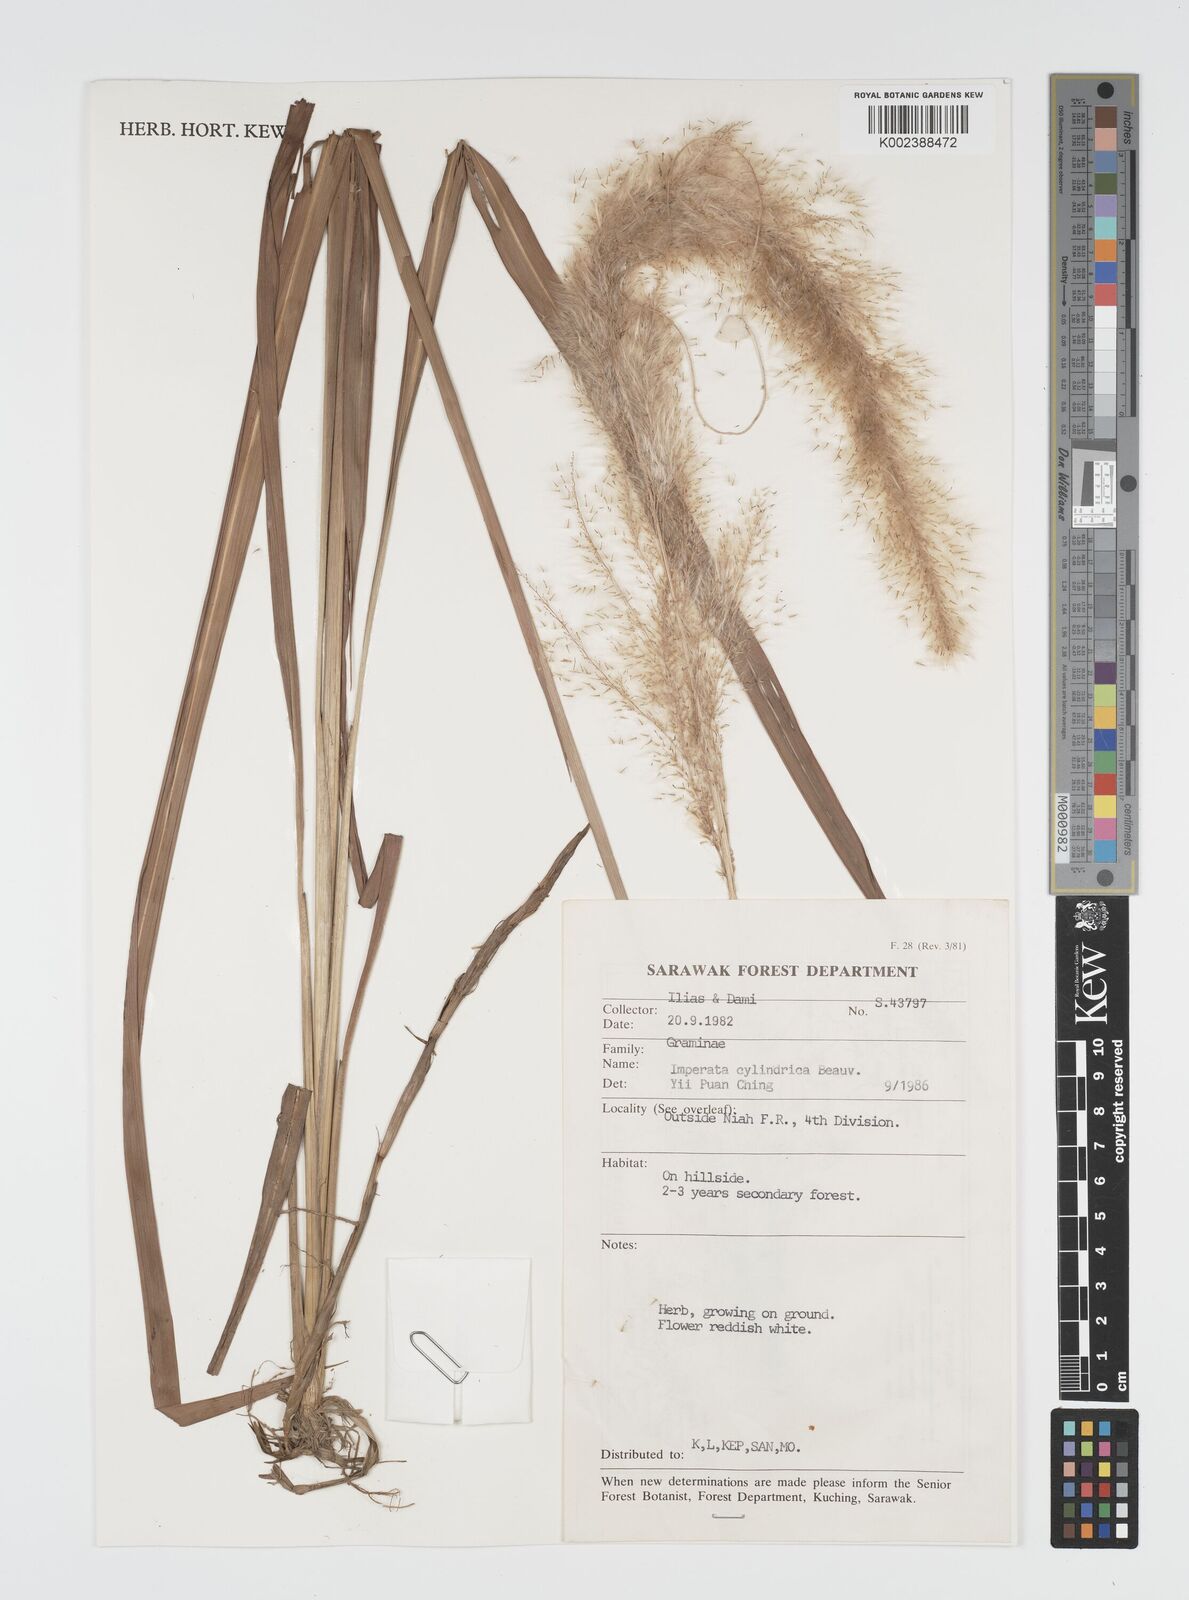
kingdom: Plantae
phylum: Tracheophyta
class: Liliopsida
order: Poales
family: Poaceae
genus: Imperata
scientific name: Imperata cylindrica
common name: Cogongrass
